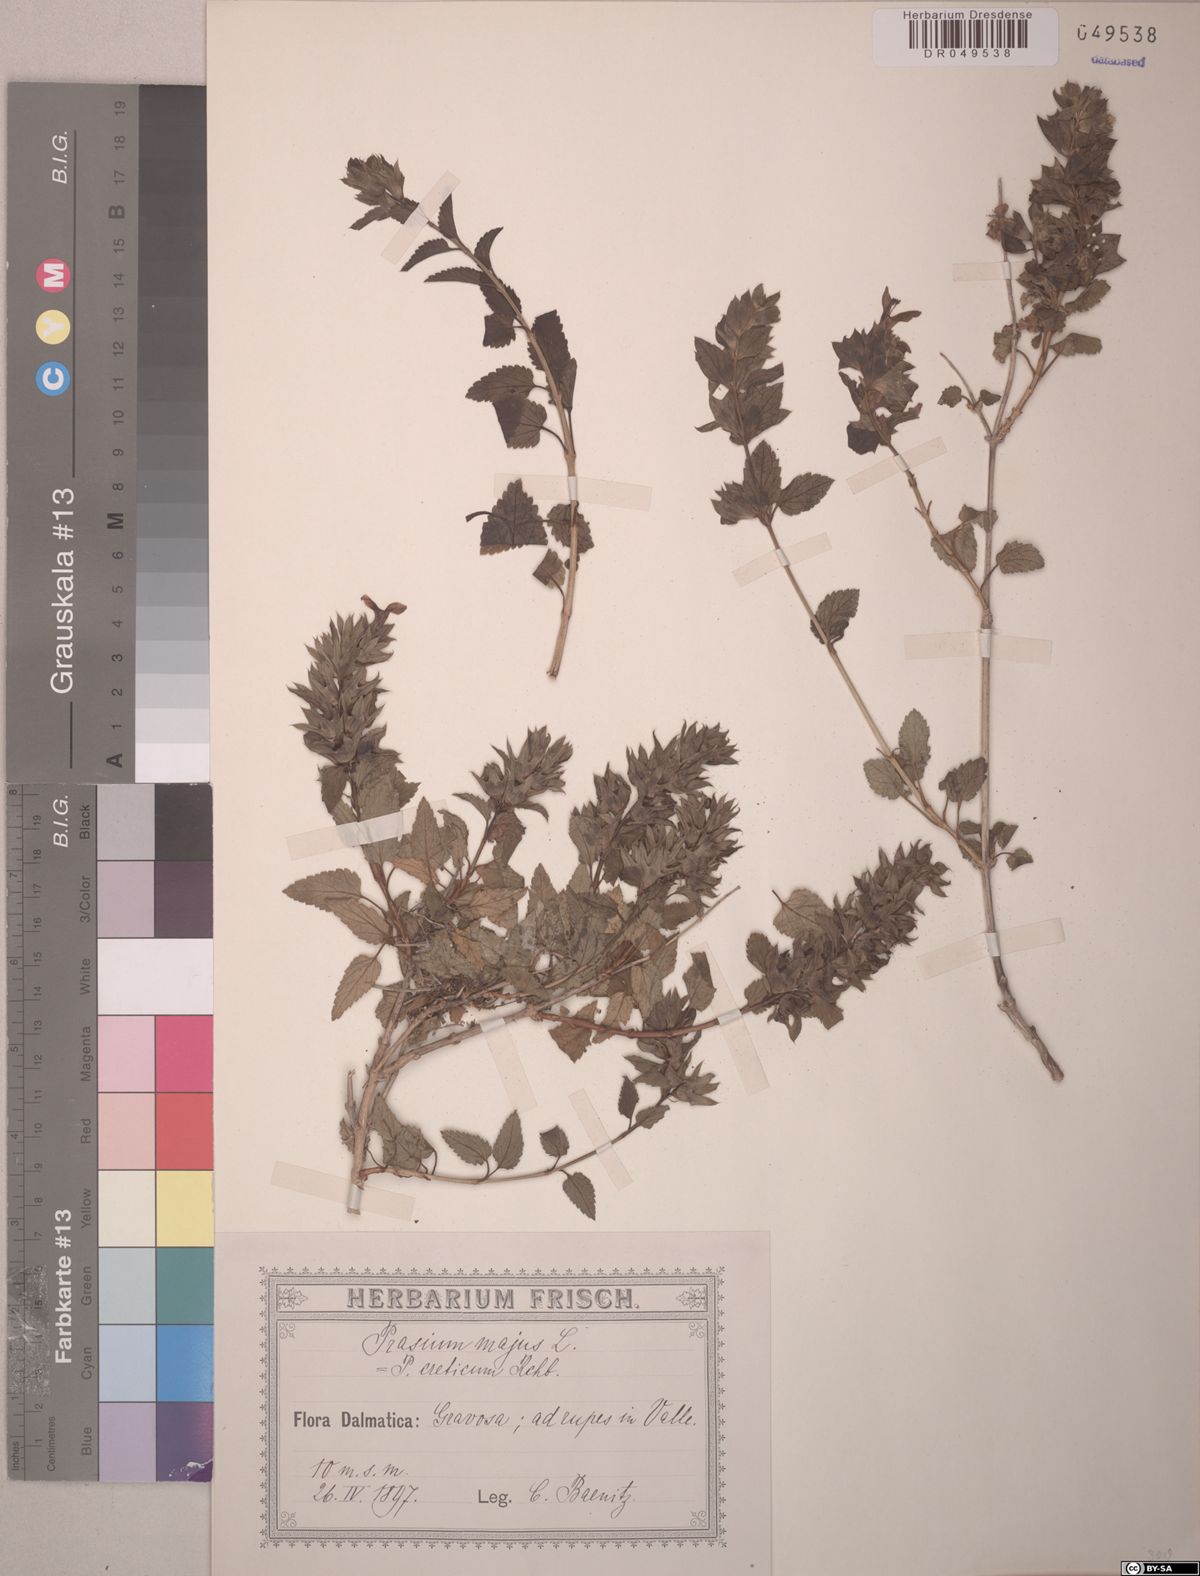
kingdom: Plantae
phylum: Tracheophyta
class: Magnoliopsida
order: Lamiales
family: Lamiaceae
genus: Prasium
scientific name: Prasium majus
